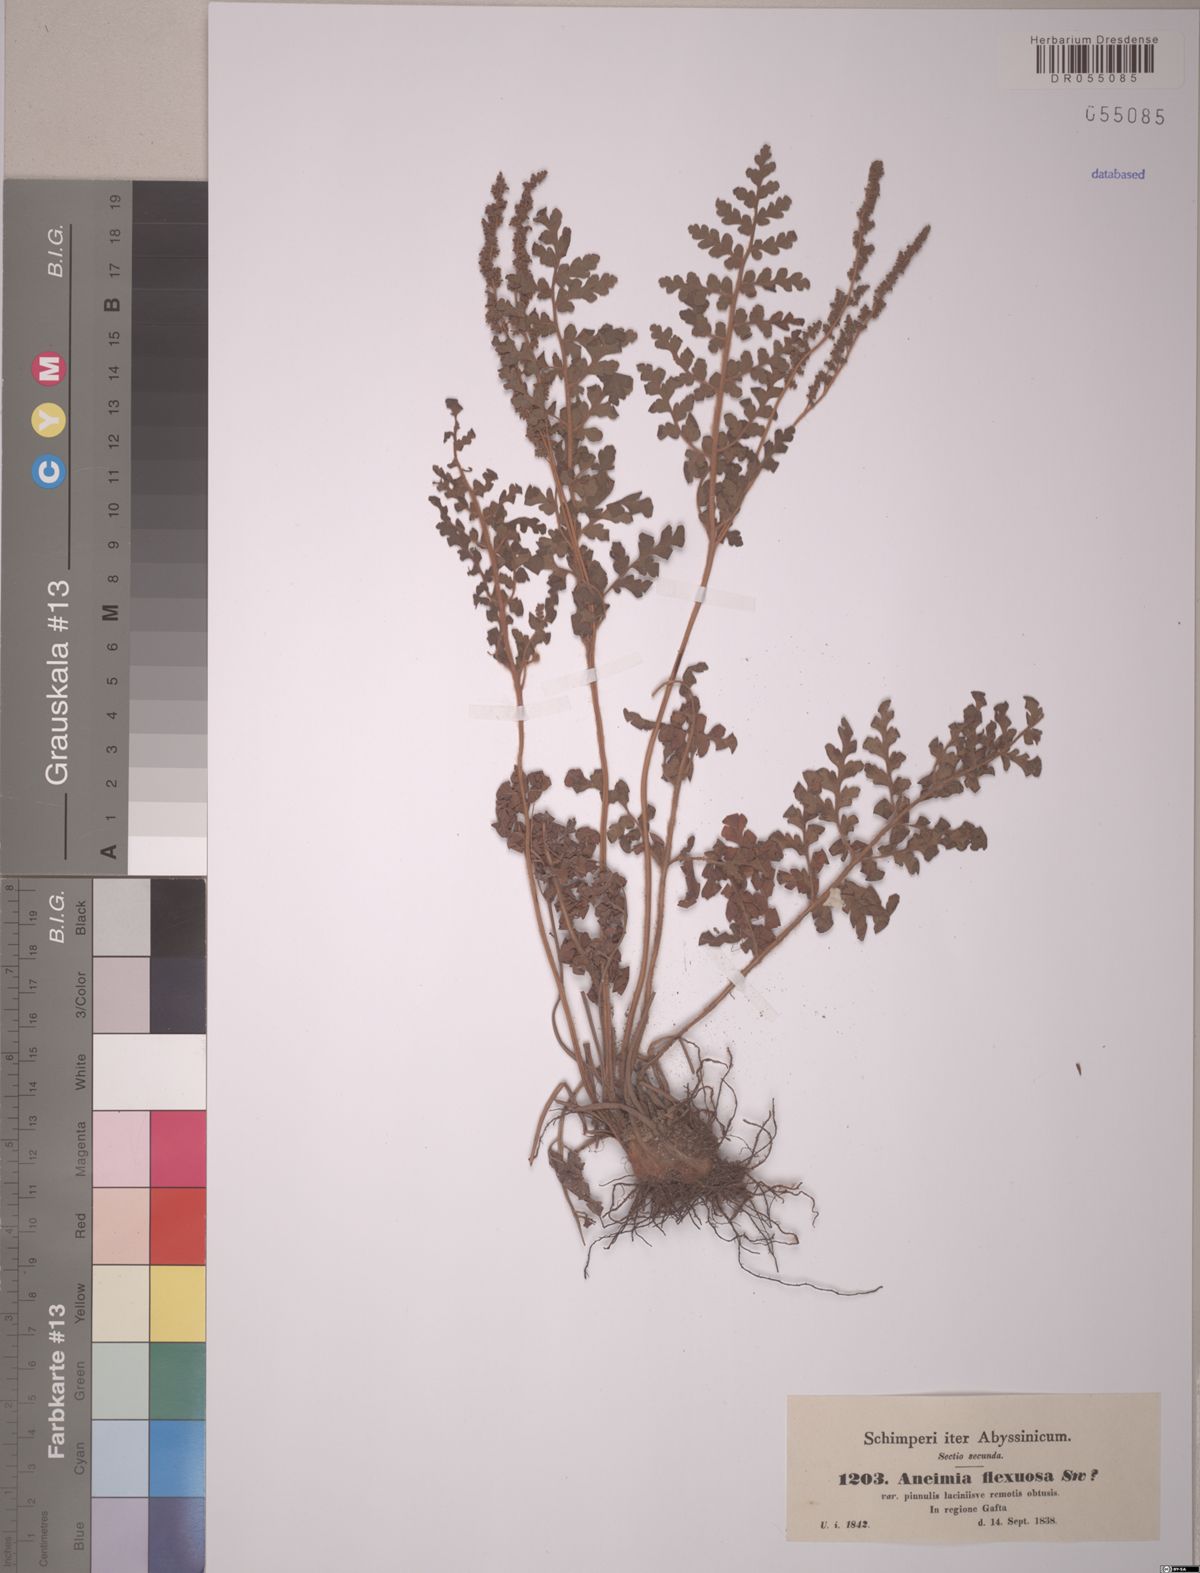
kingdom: Plantae
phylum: Tracheophyta
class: Polypodiopsida
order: Schizaeales
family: Anemiaceae
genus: Anemia
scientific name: Anemia schimperiana
